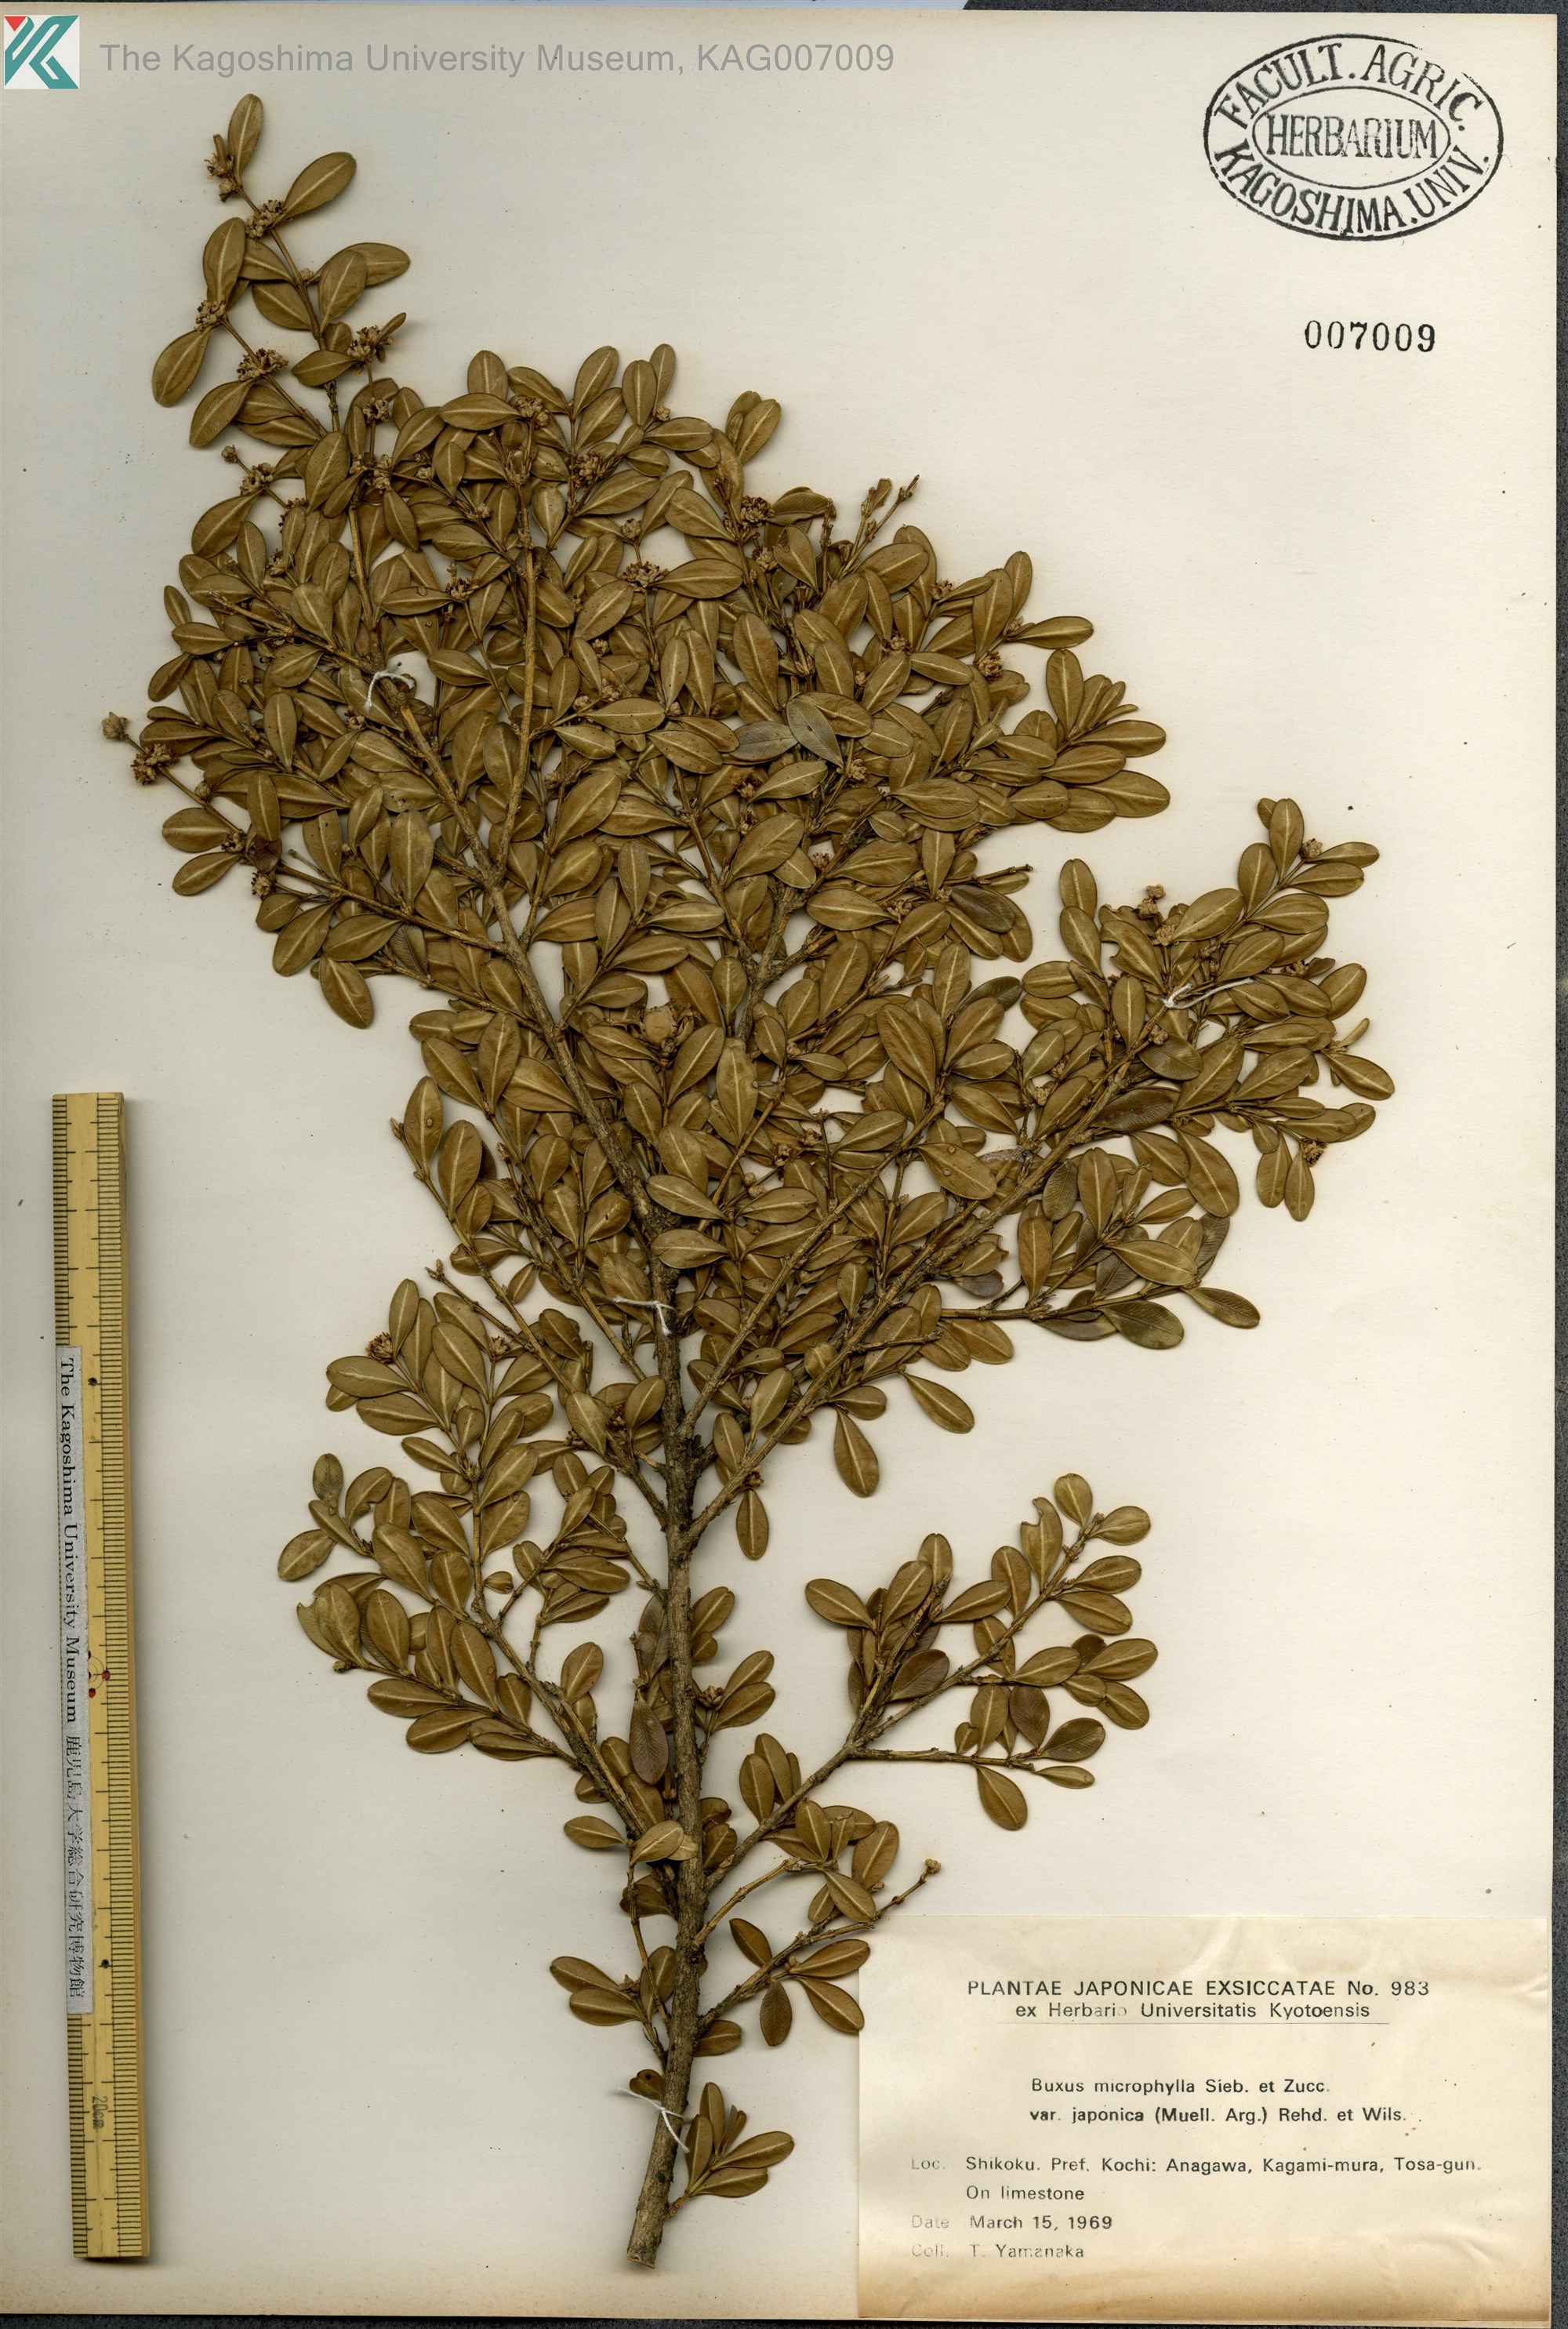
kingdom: Plantae
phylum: Tracheophyta
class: Magnoliopsida
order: Buxales
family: Buxaceae
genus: Buxus
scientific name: Buxus microphylla
